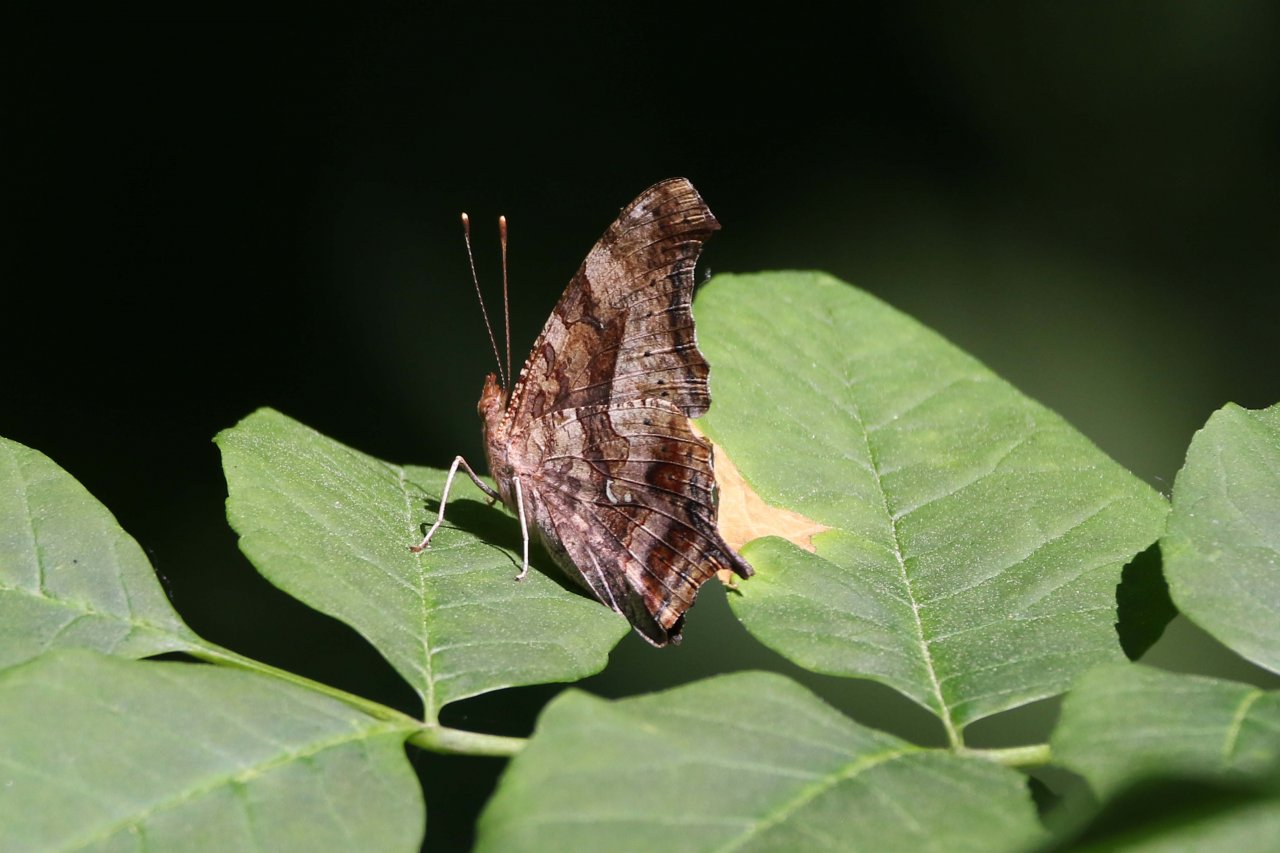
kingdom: Animalia
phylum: Arthropoda
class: Insecta
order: Lepidoptera
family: Nymphalidae
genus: Polygonia
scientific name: Polygonia interrogationis
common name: Question Mark
